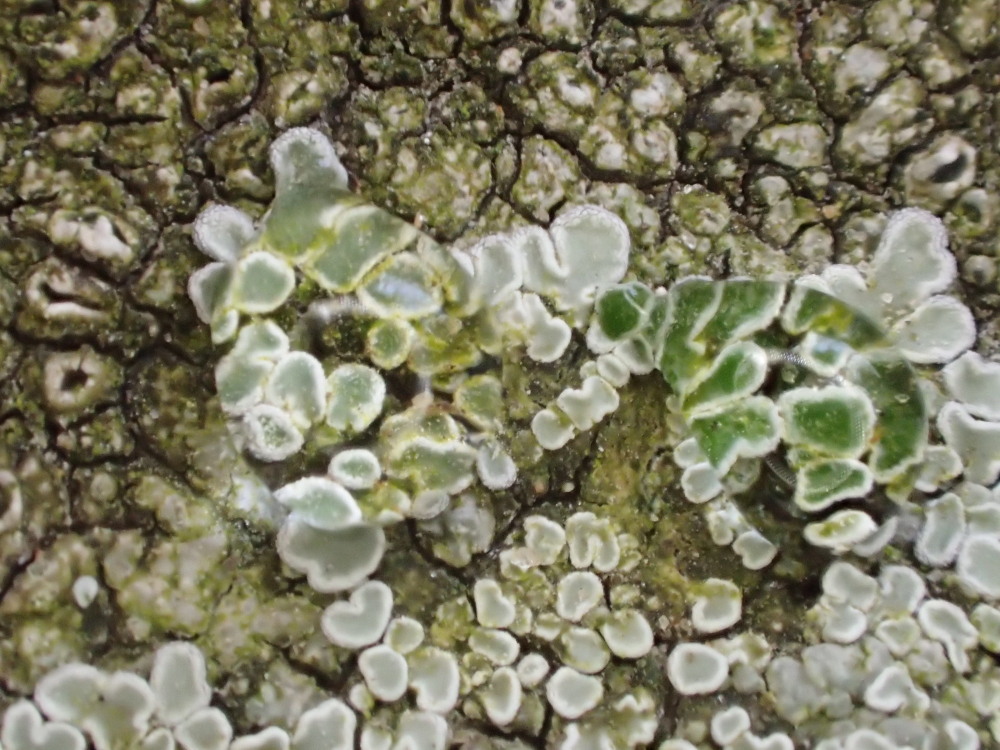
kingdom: Fungi
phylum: Ascomycota
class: Lecanoromycetes
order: Lecanorales
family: Lecanoraceae
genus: Protoparmeliopsis
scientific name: Protoparmeliopsis muralis
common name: randfliget kantskivelav
